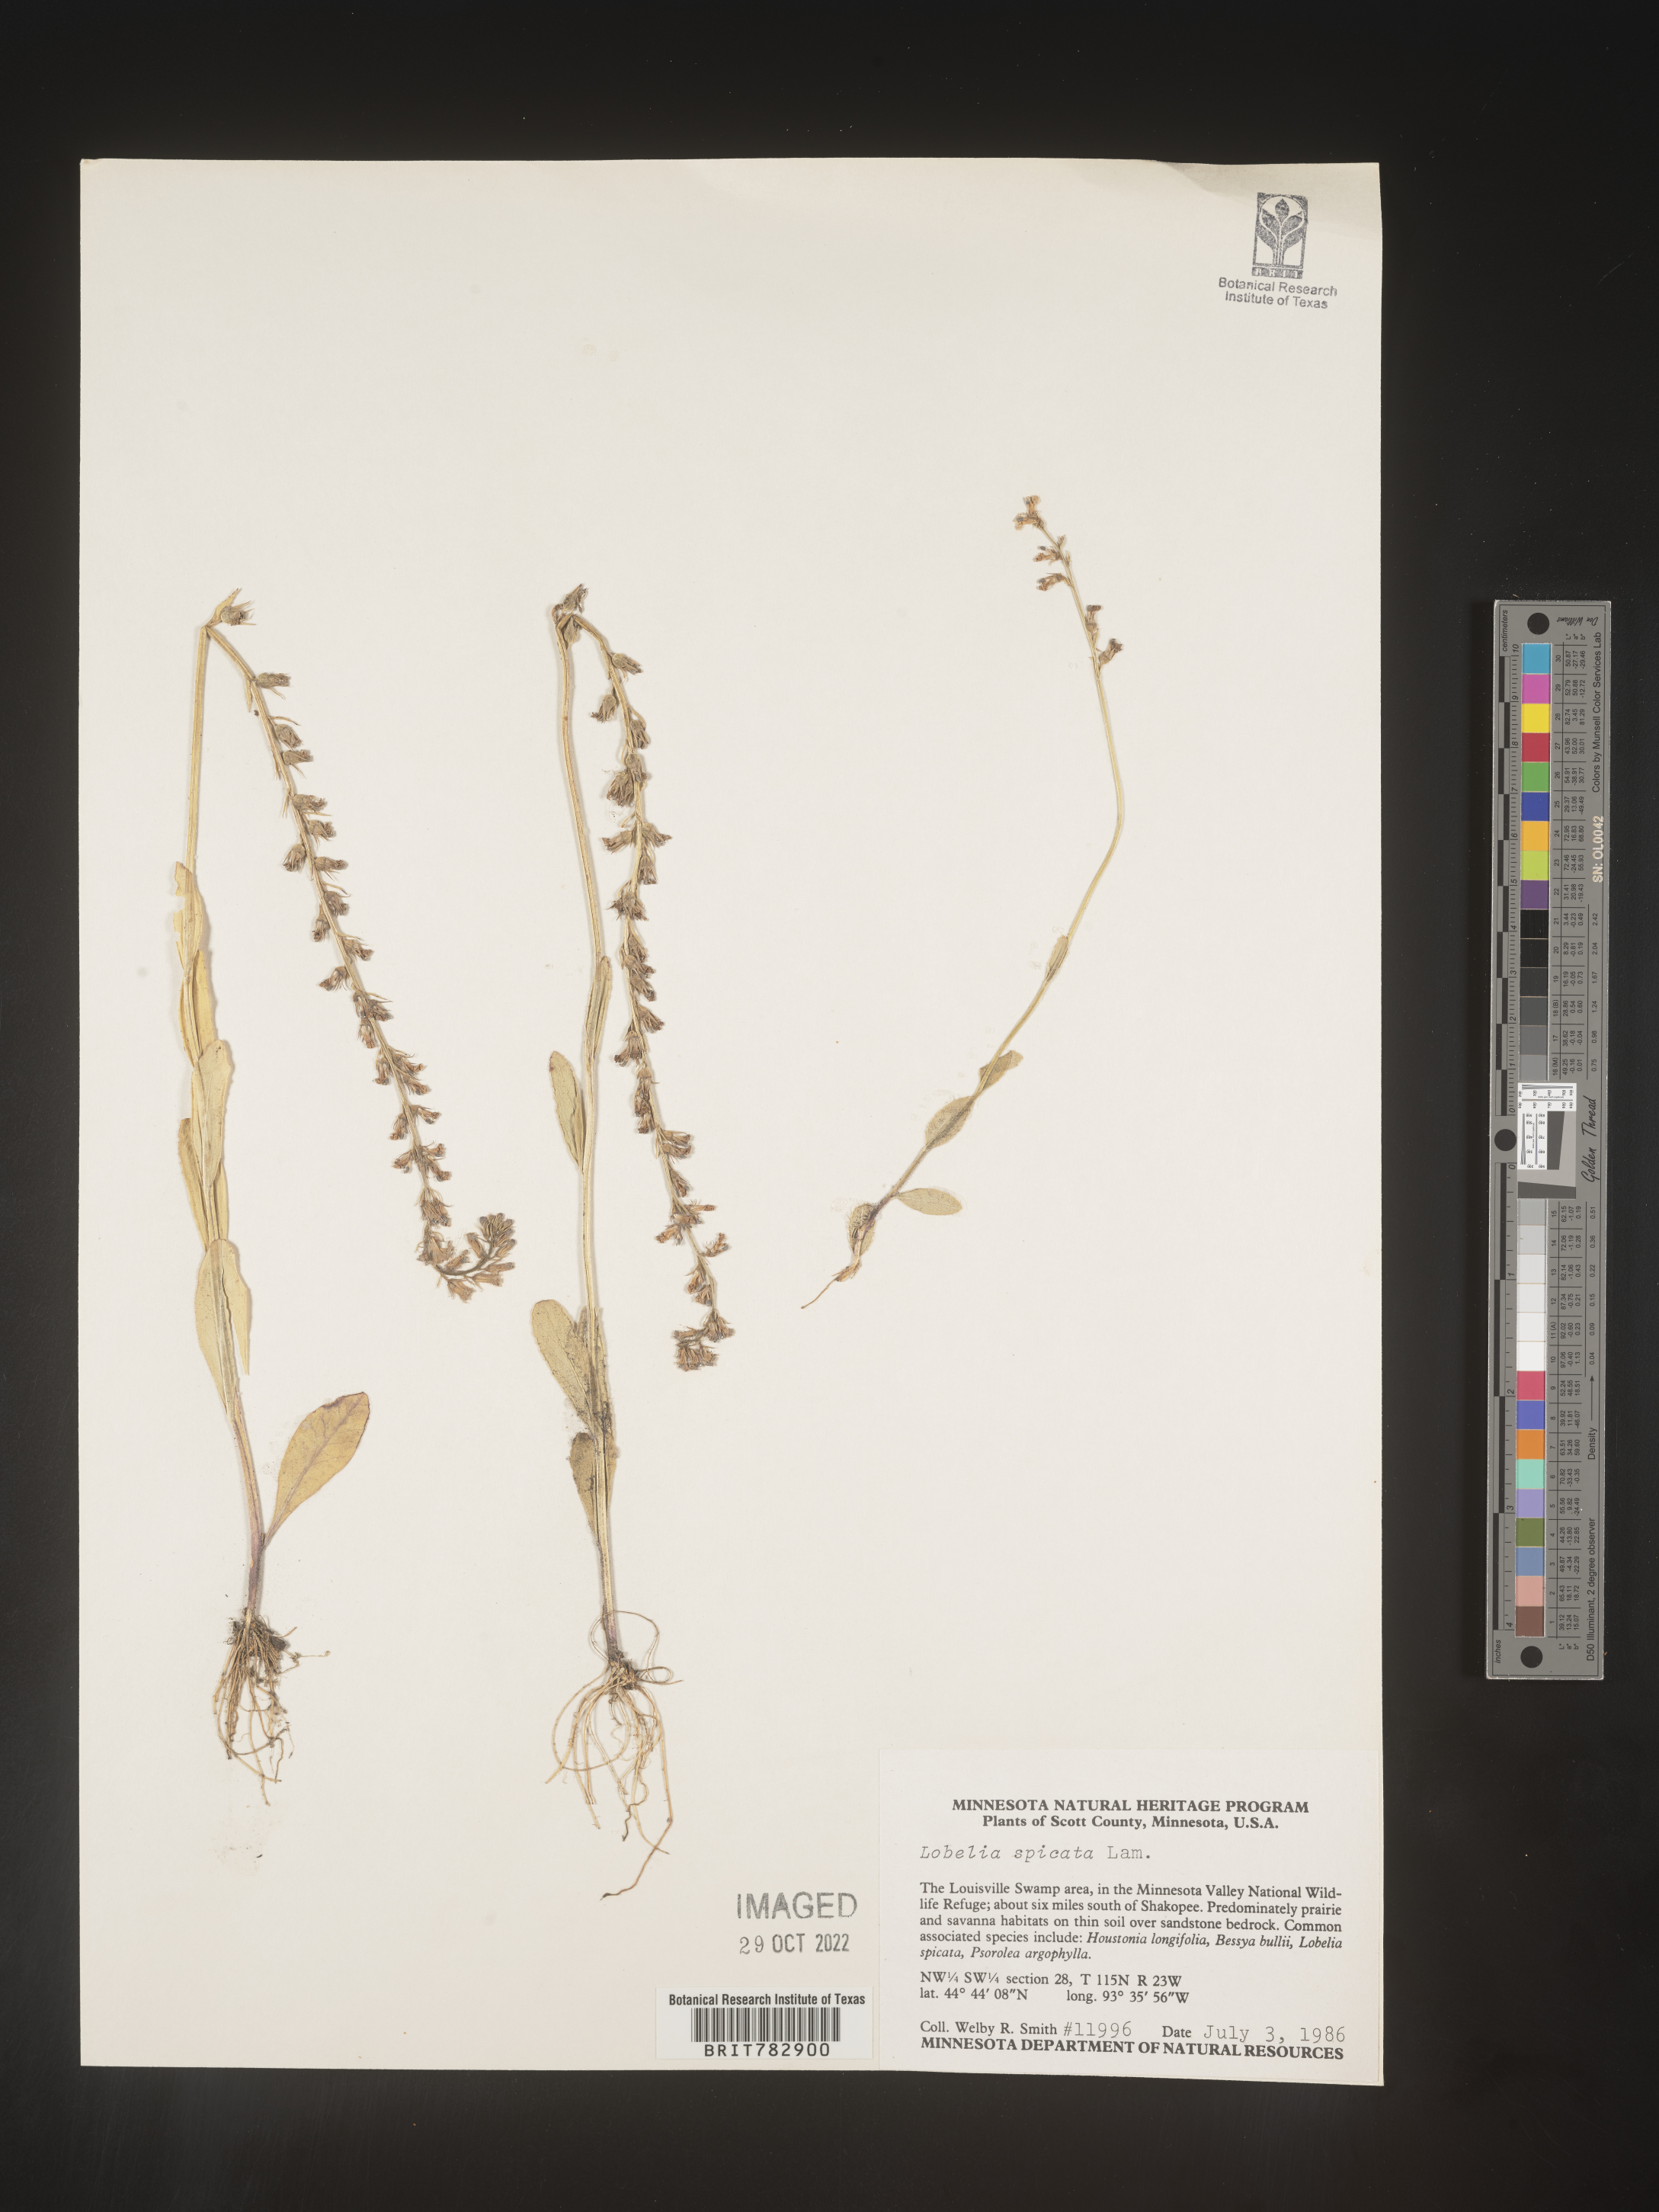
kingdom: Plantae
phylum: Tracheophyta
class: Magnoliopsida
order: Asterales
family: Campanulaceae
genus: Lobelia
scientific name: Lobelia spicata
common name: Pale-spike lobelia
